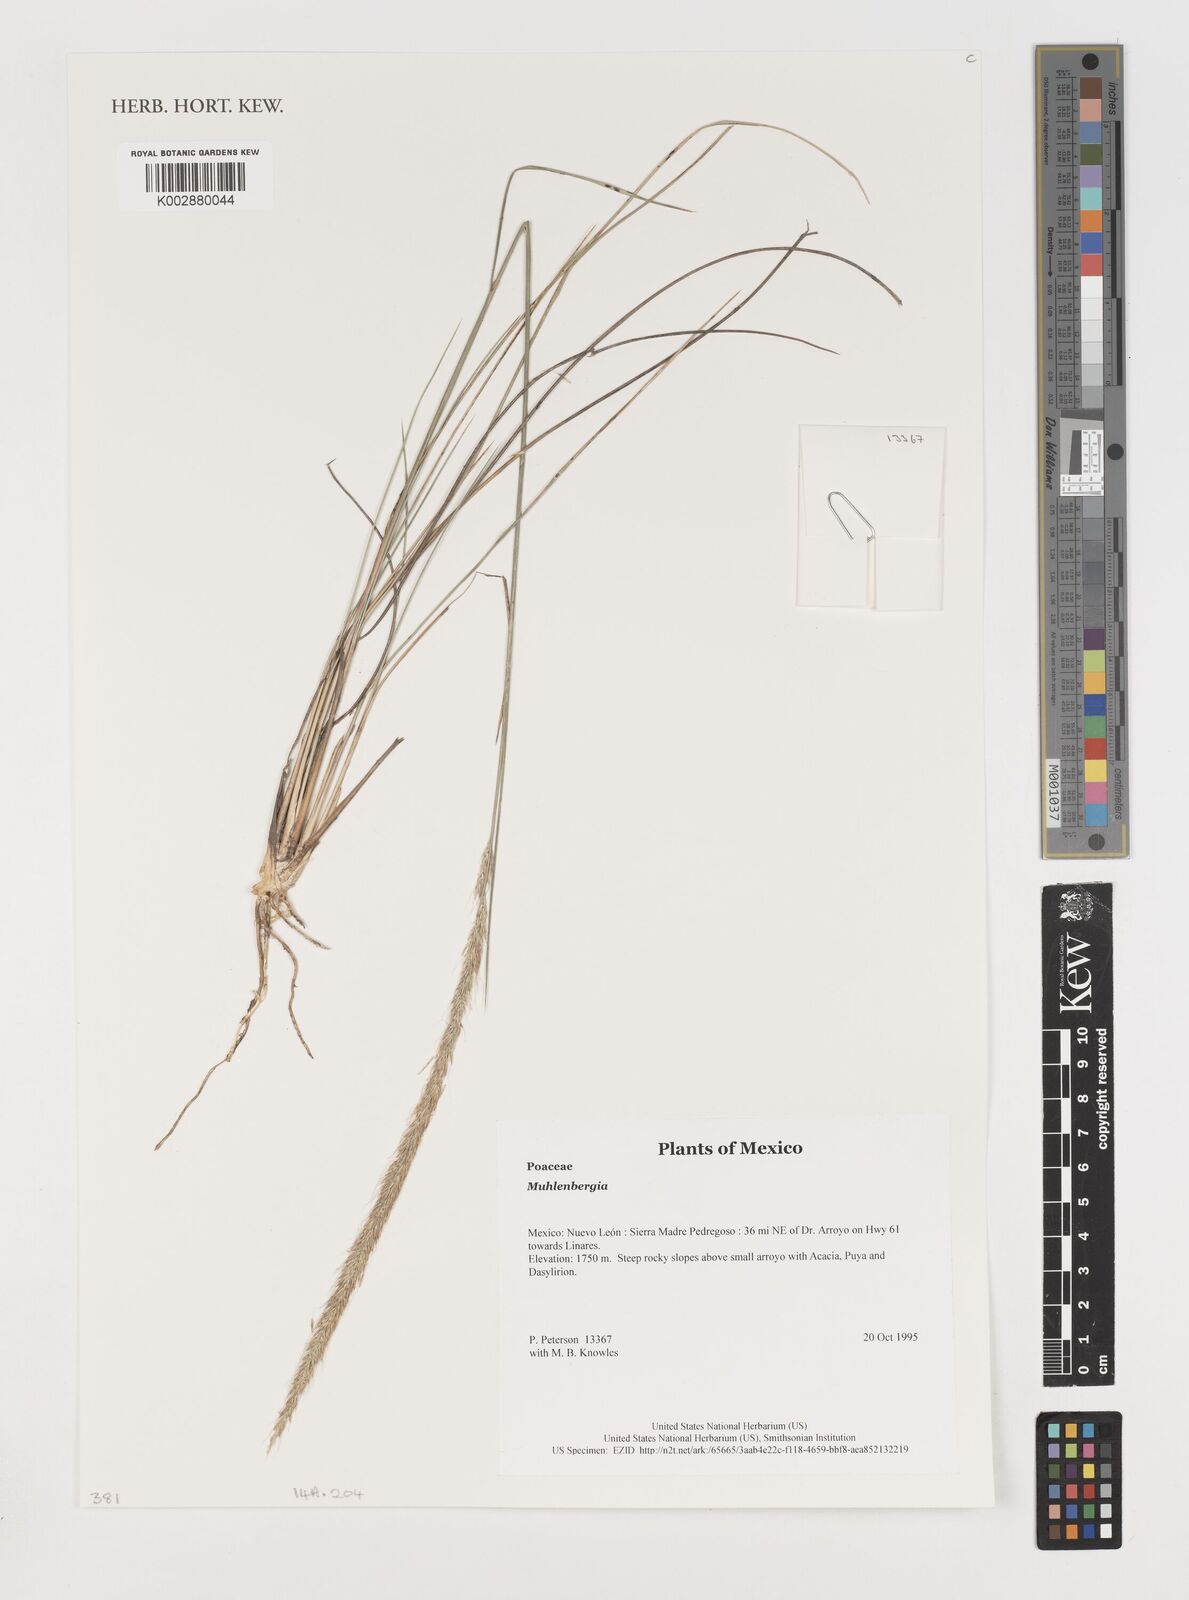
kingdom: Plantae
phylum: Tracheophyta
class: Liliopsida
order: Poales
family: Poaceae
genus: Muhlenbergia
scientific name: Muhlenbergia
